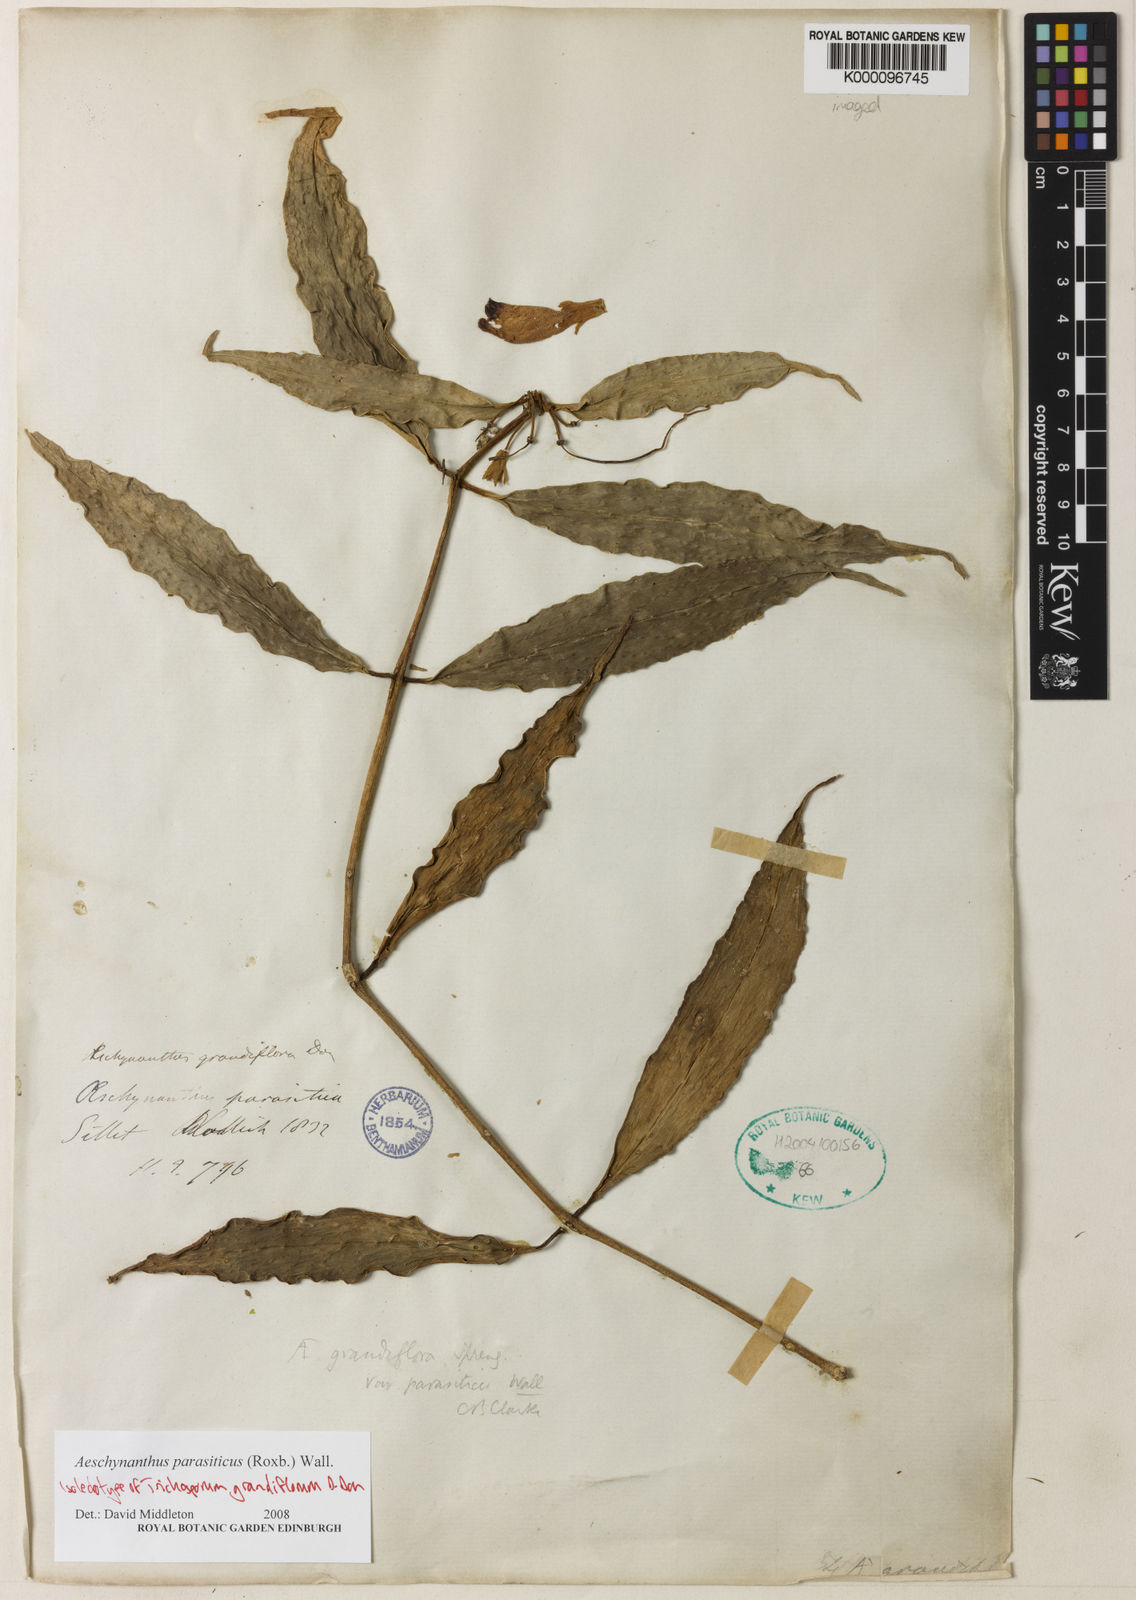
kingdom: Plantae
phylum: Tracheophyta
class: Magnoliopsida
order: Lamiales
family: Gesneriaceae
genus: Aeschynanthus
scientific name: Aeschynanthus parasiticus
